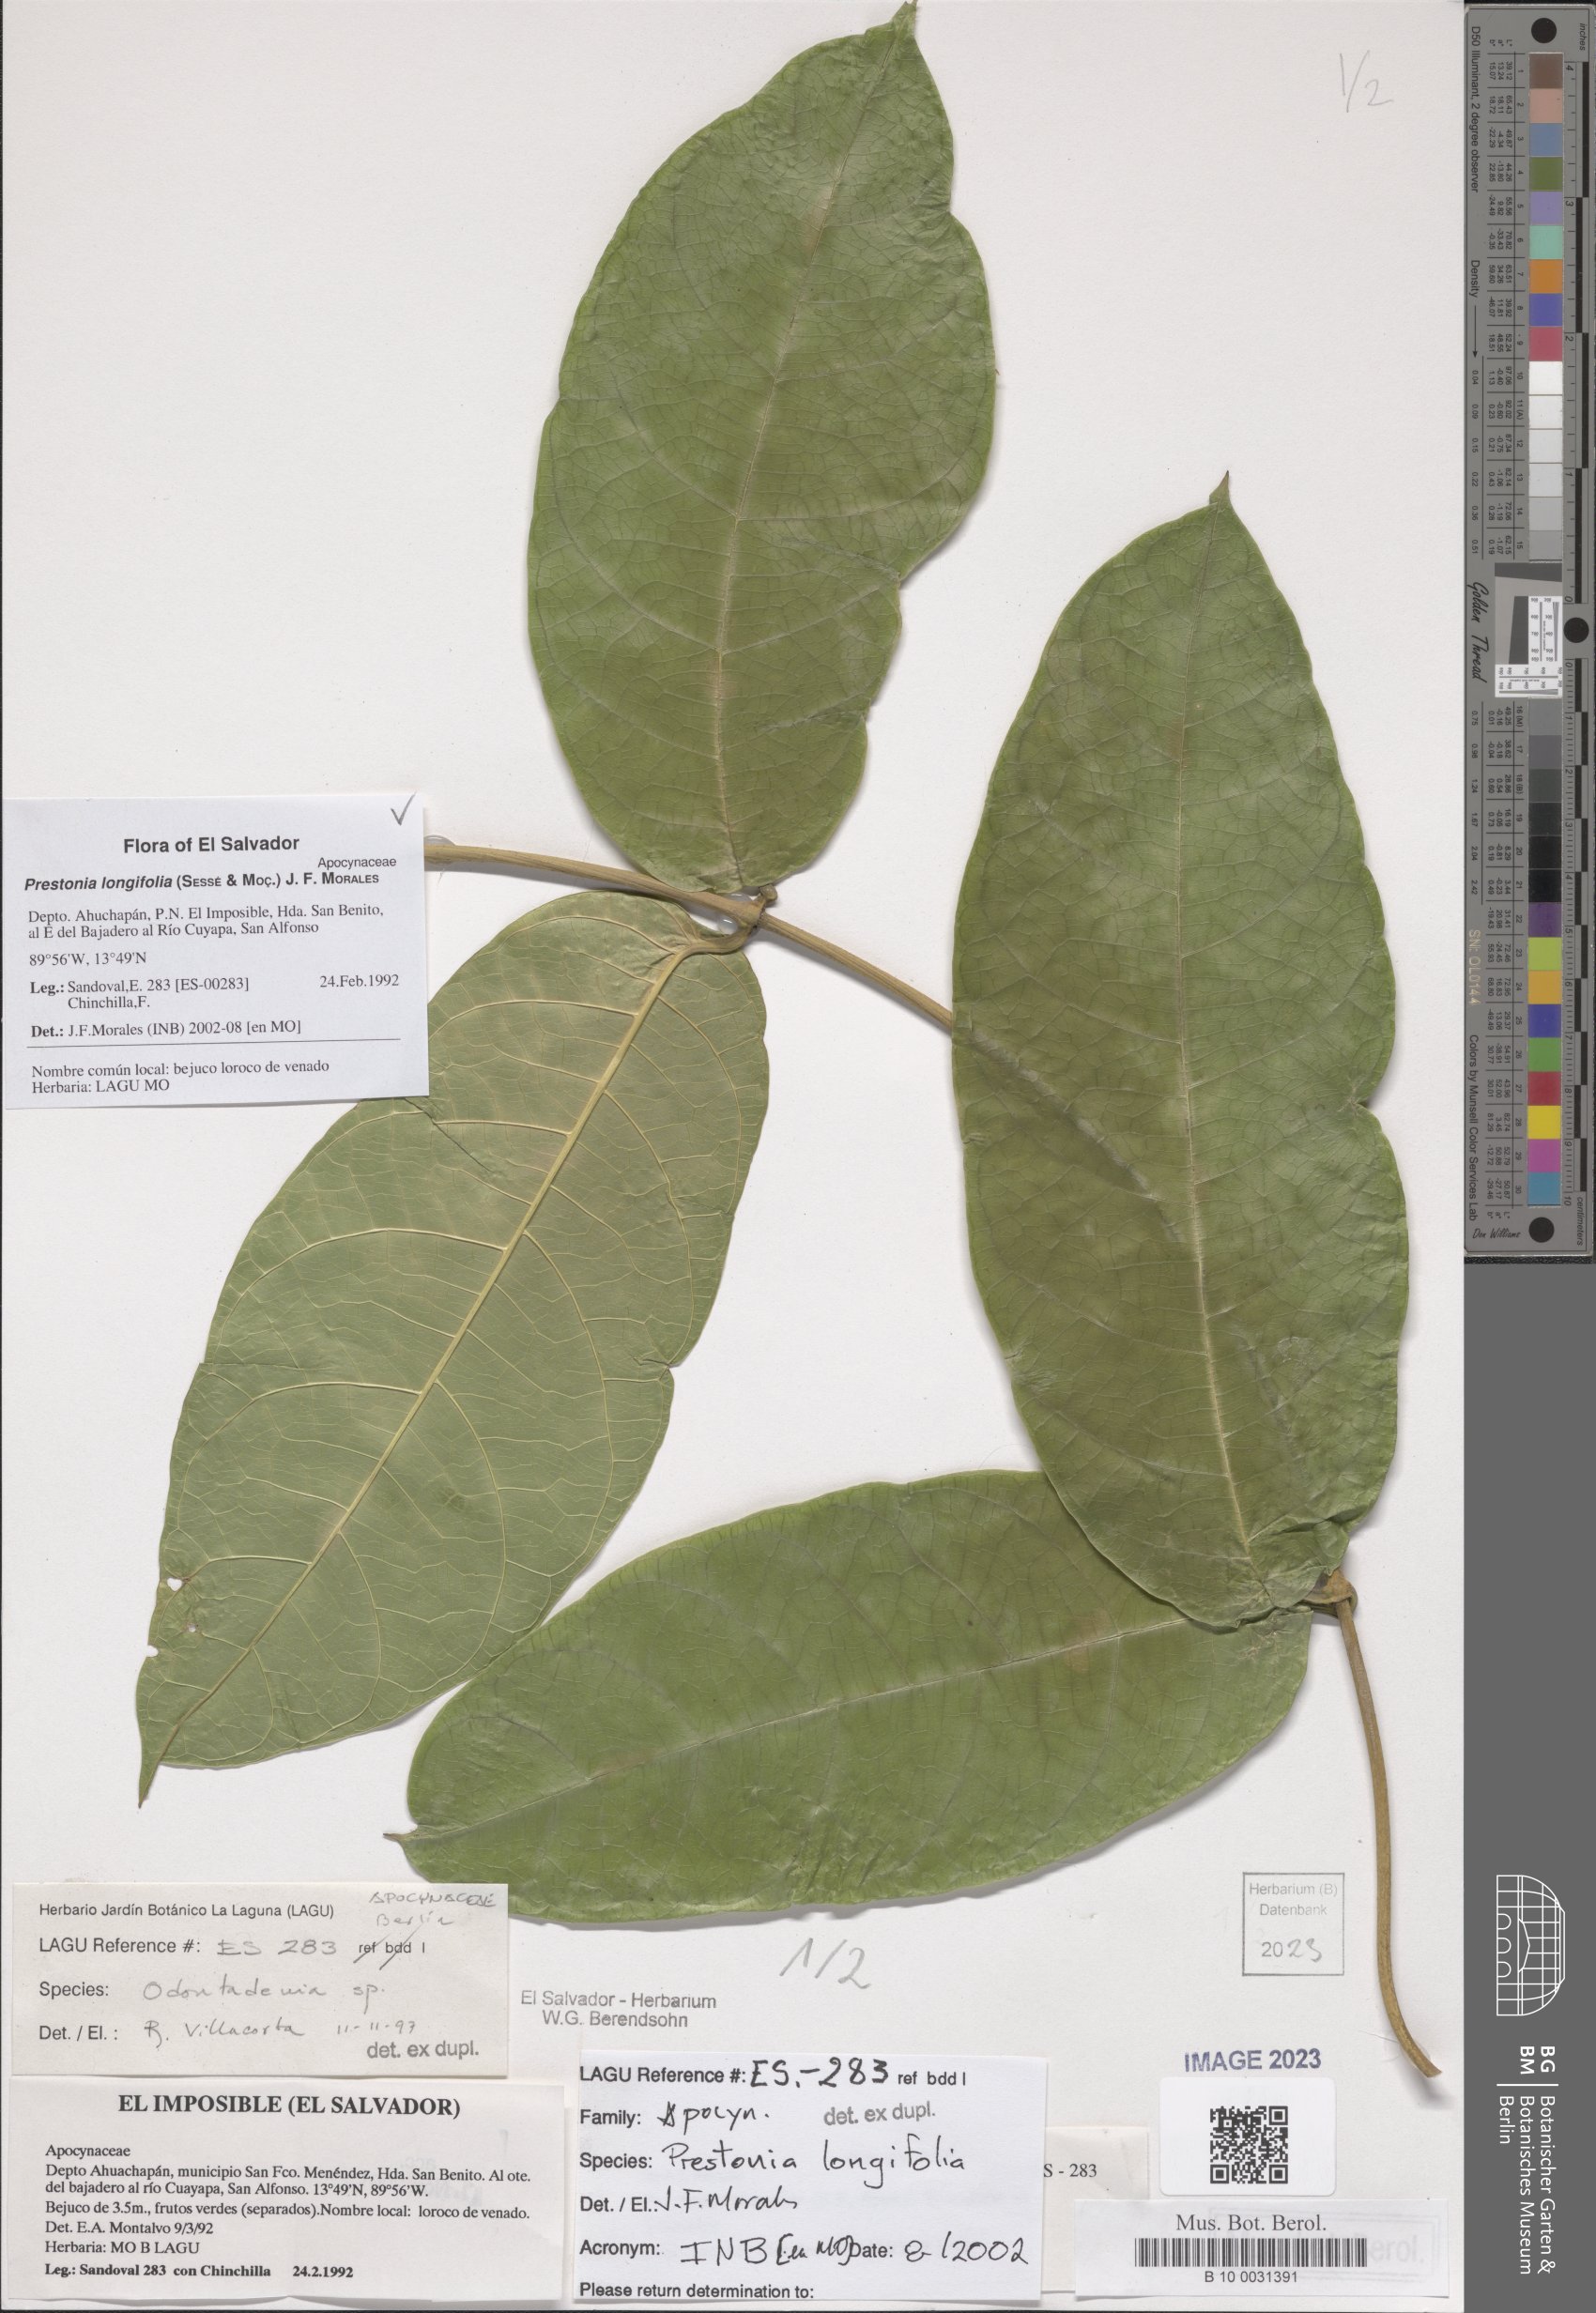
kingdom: Plantae
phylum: Tracheophyta
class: Magnoliopsida
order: Gentianales
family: Apocynaceae
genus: Prestonia
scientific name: Prestonia longifolia
